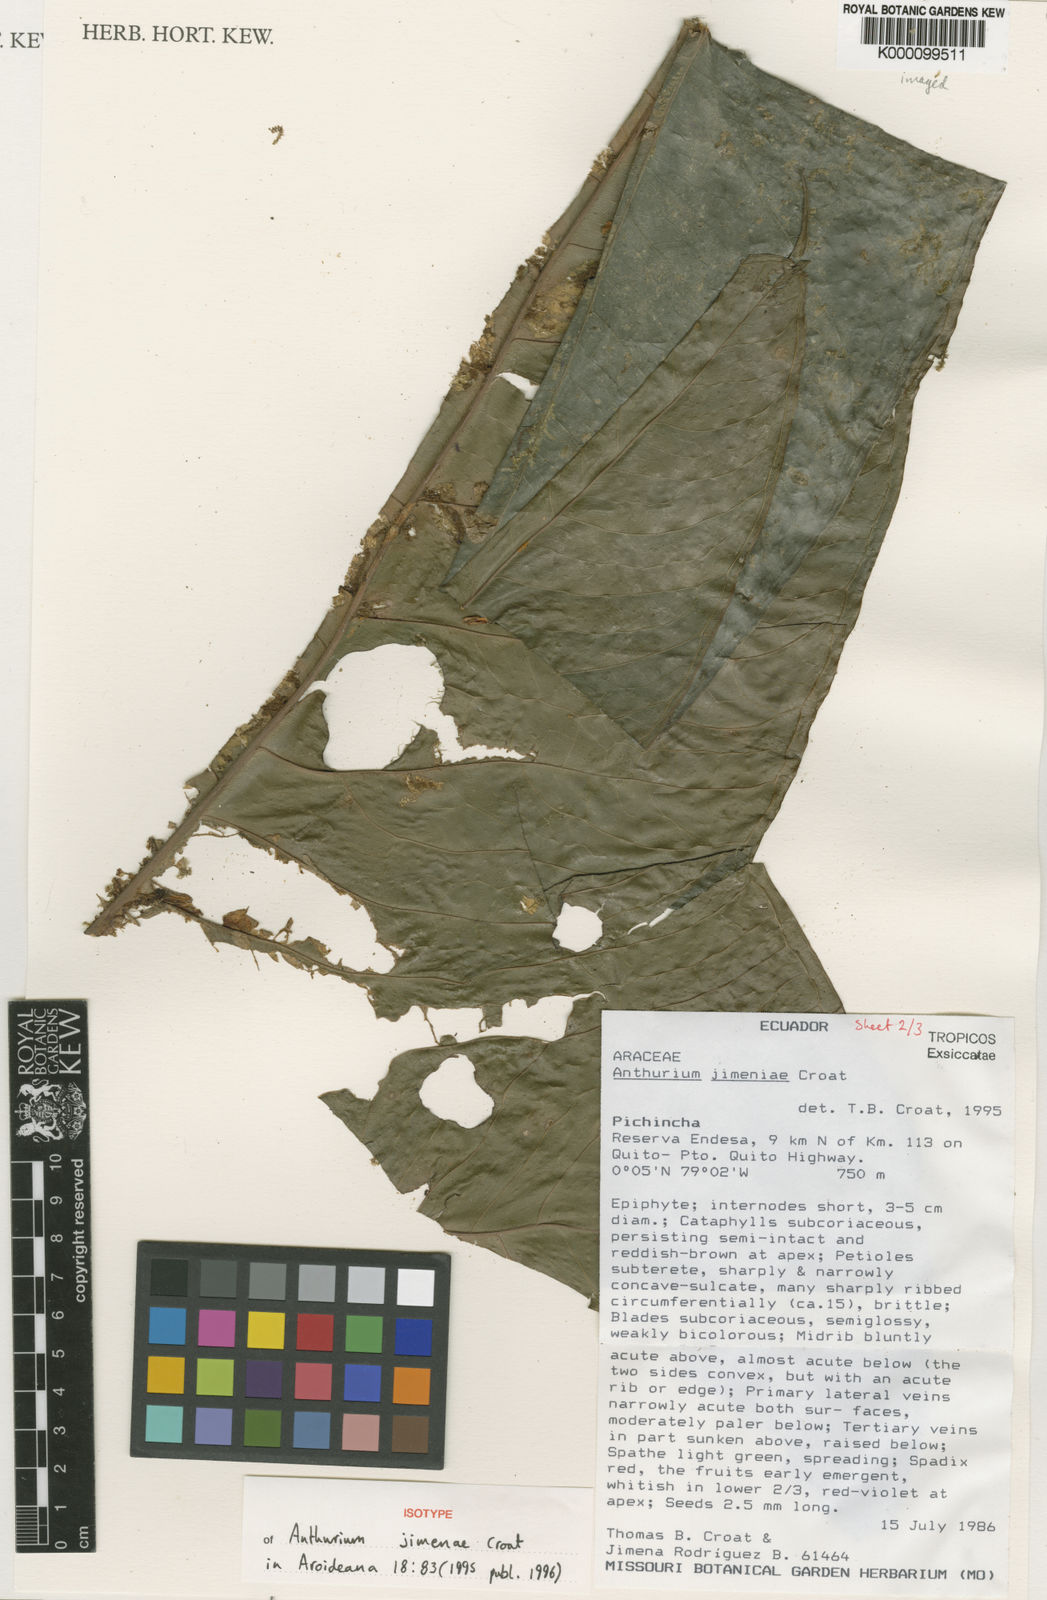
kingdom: Plantae
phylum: Tracheophyta
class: Liliopsida
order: Alismatales
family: Araceae
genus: Anthurium
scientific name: Anthurium jimenae
